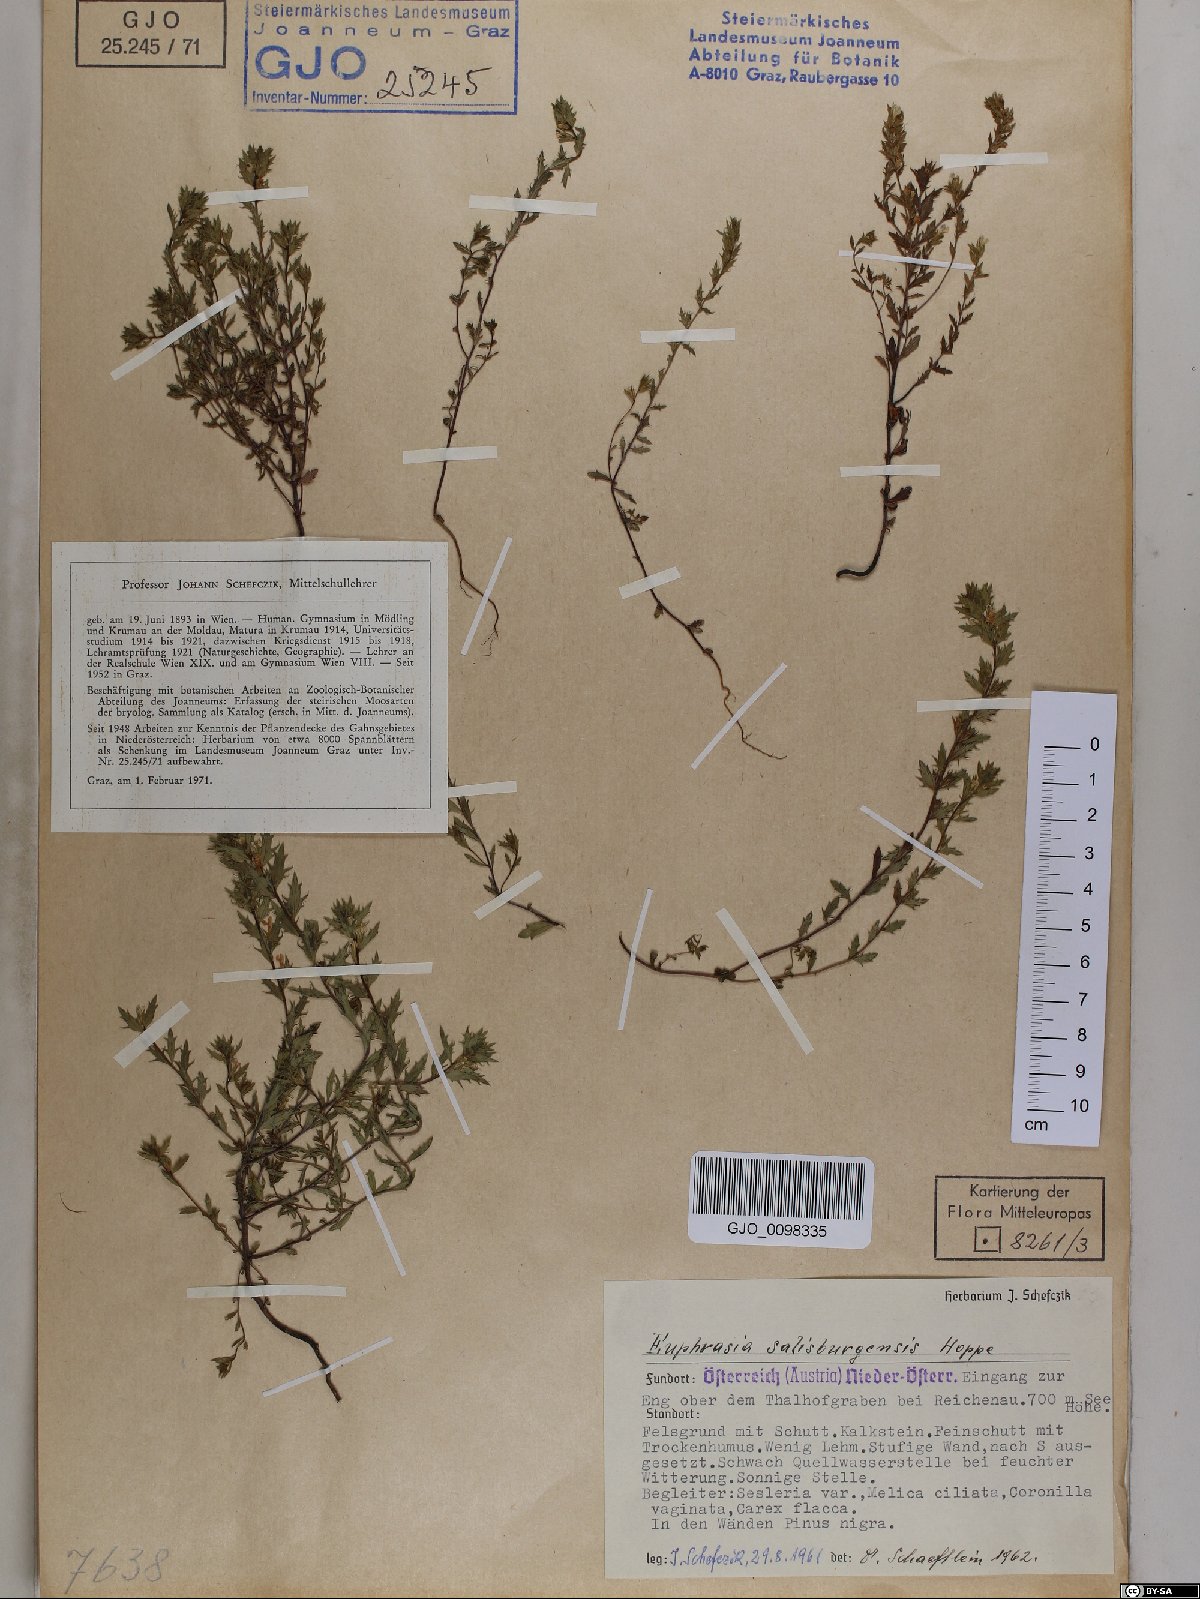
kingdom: Plantae
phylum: Tracheophyta
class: Magnoliopsida
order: Lamiales
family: Orobanchaceae
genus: Euphrasia
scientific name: Euphrasia salisburgensis
